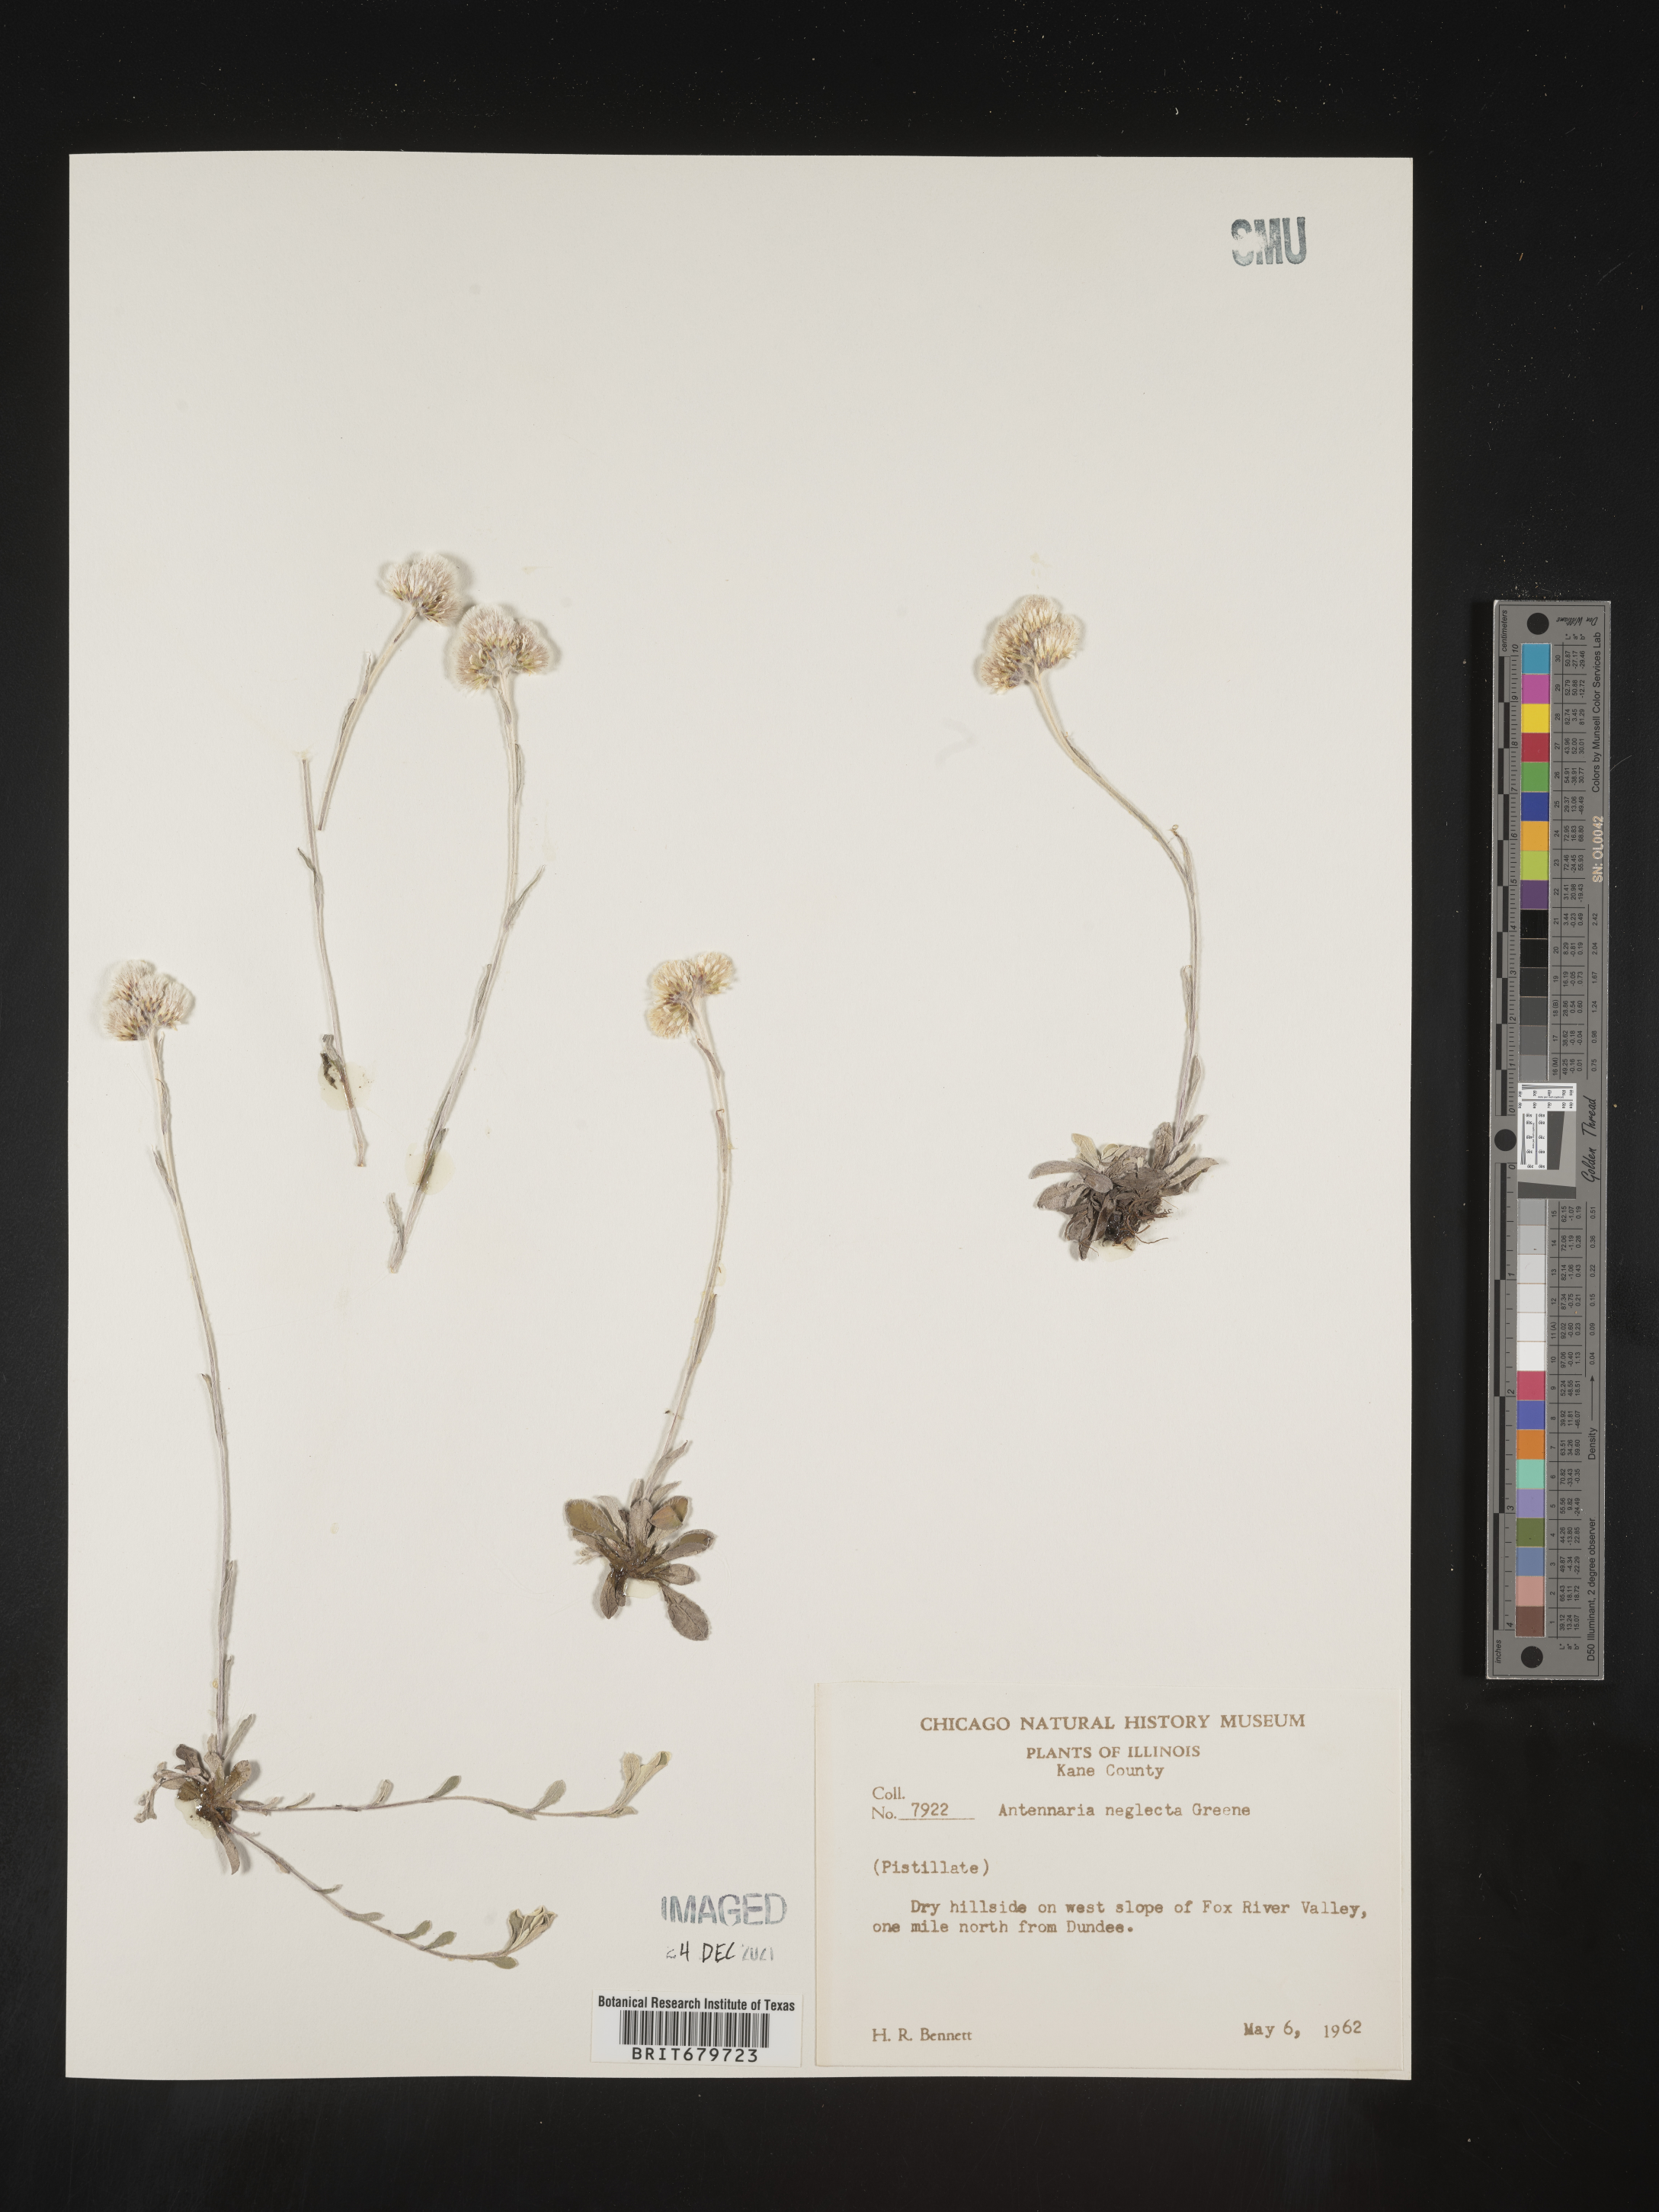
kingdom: Plantae
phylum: Tracheophyta
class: Magnoliopsida
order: Asterales
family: Asteraceae
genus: Antennaria
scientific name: Antennaria neglecta
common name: Field pussytoes
